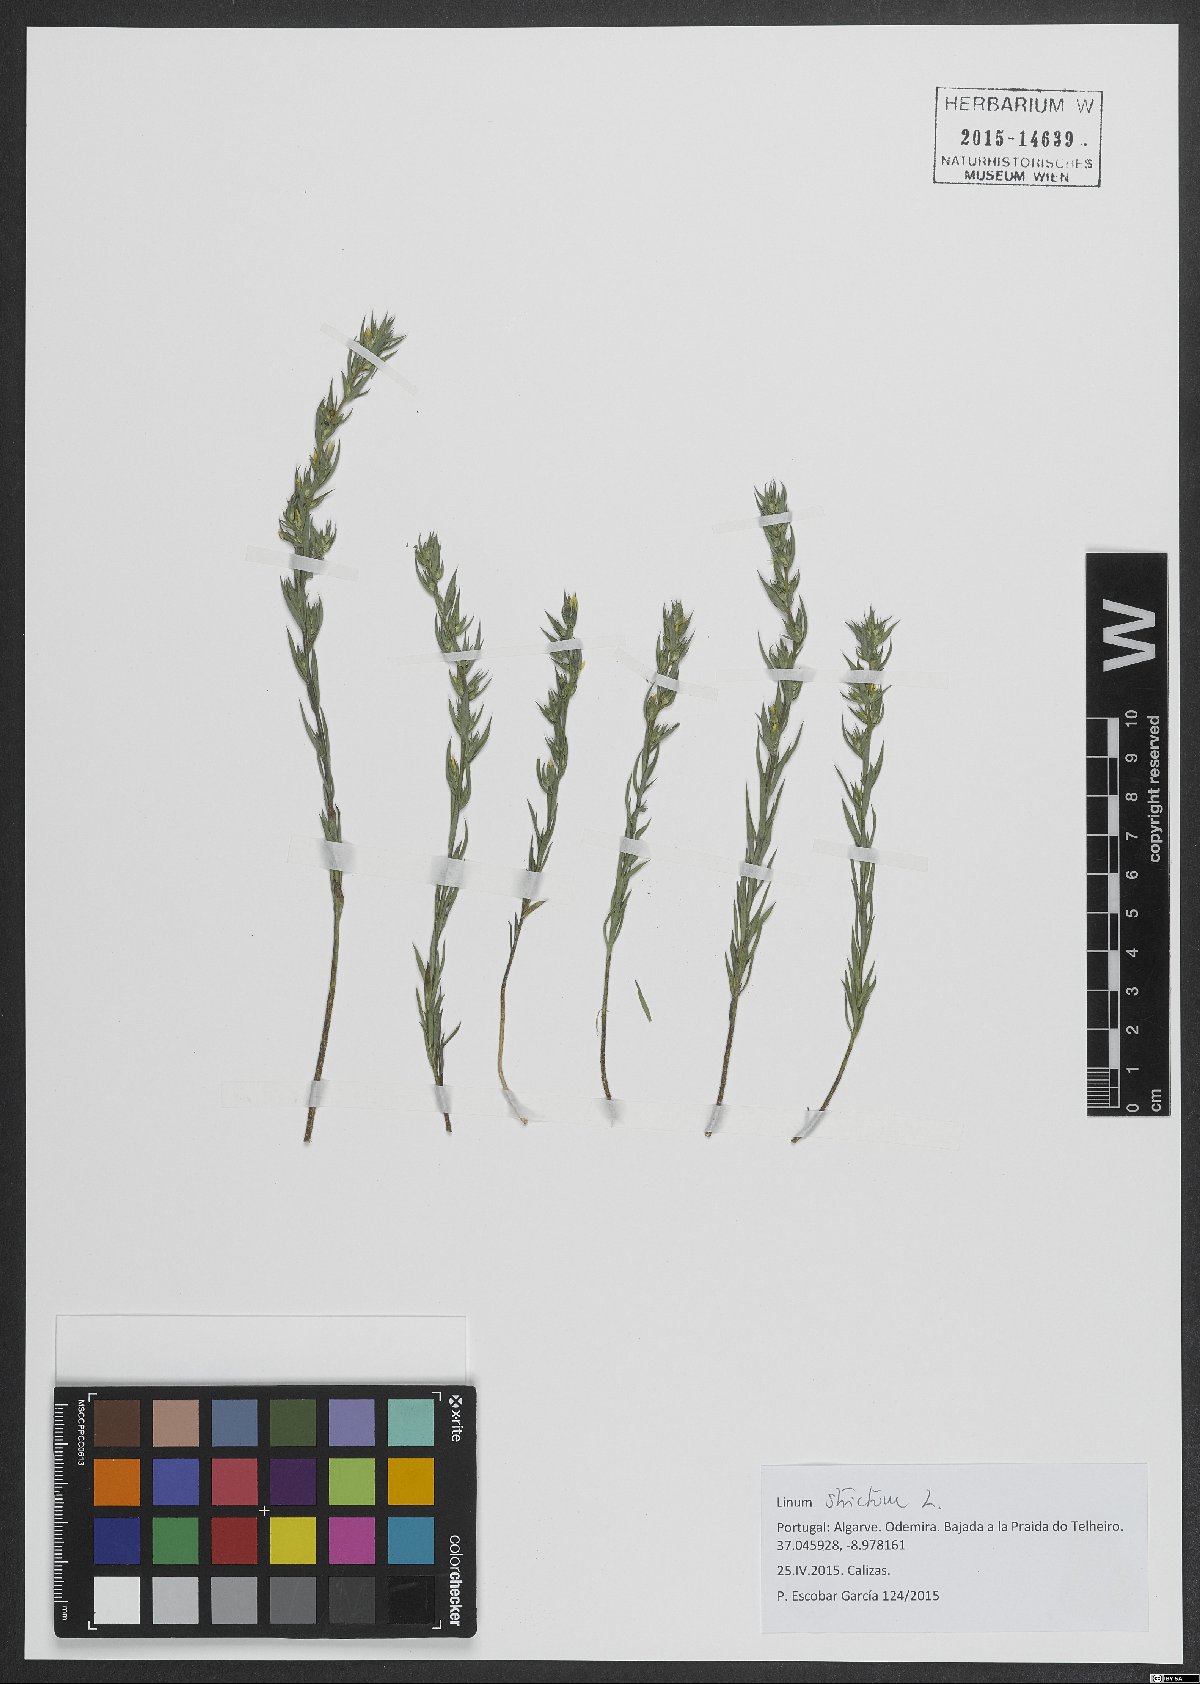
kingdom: Plantae
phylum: Tracheophyta
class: Magnoliopsida
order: Malpighiales
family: Linaceae
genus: Linum
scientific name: Linum strictum
